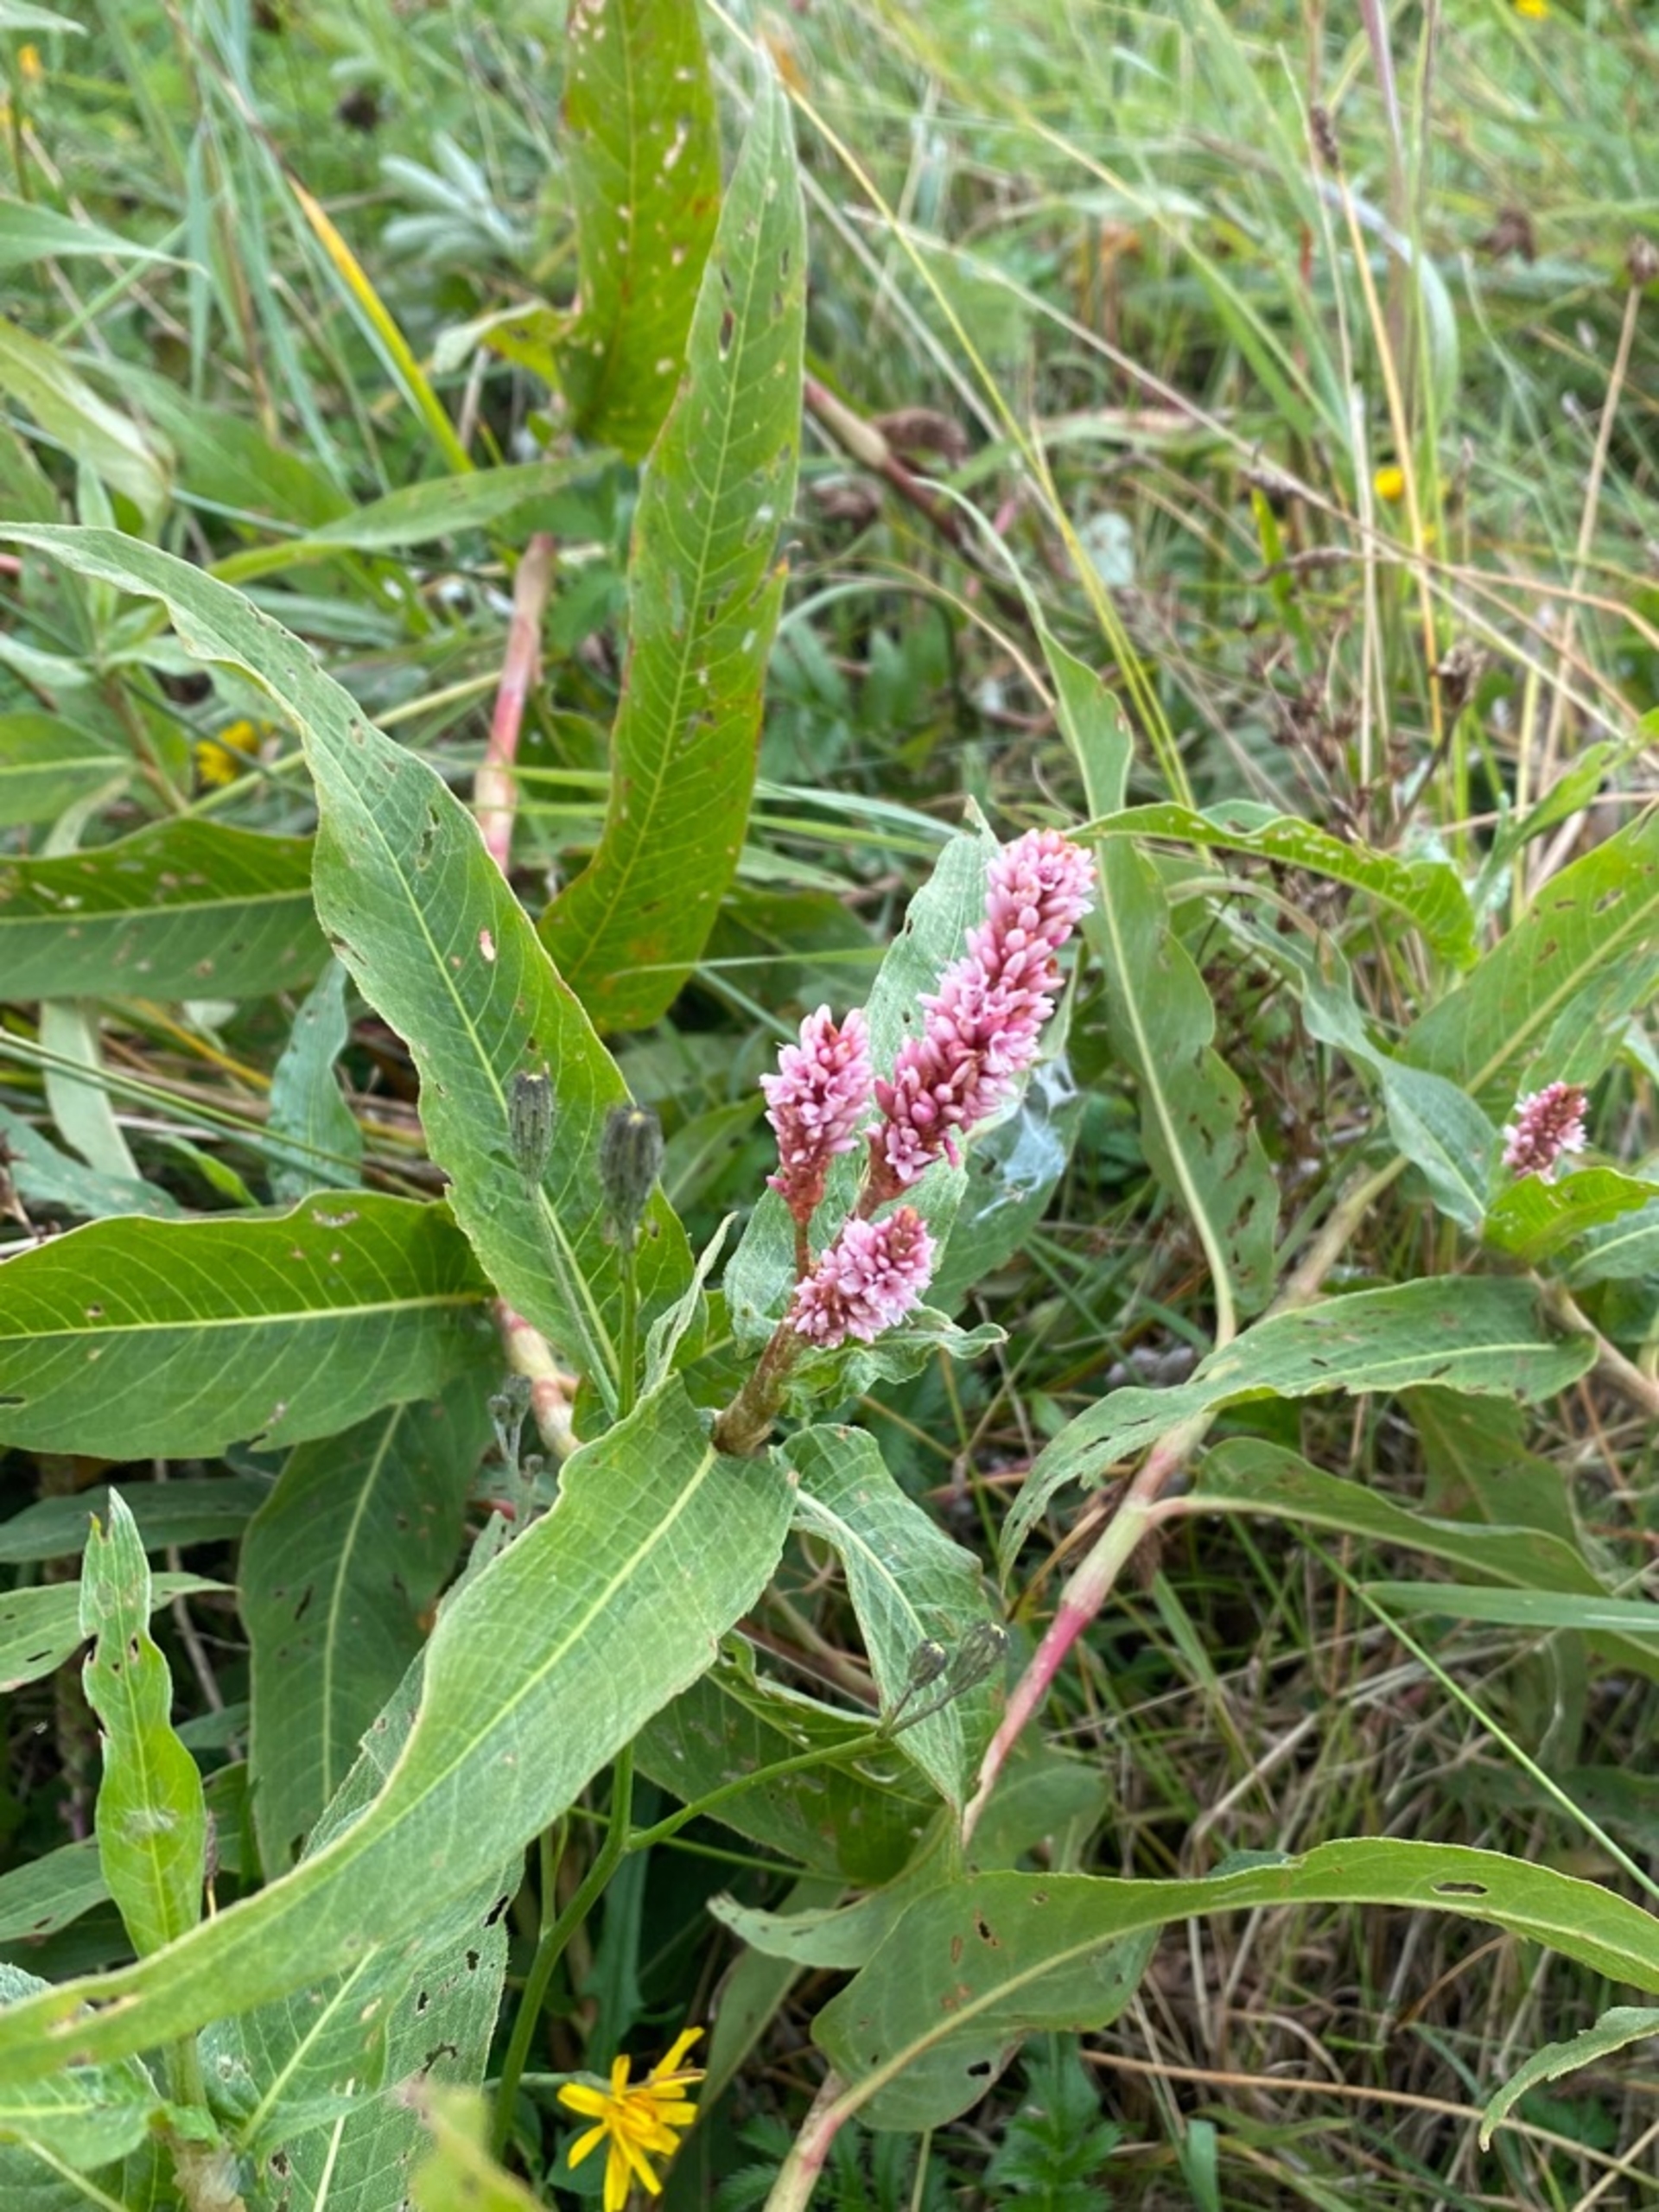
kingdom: Plantae
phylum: Tracheophyta
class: Magnoliopsida
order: Caryophyllales
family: Polygonaceae
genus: Persicaria
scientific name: Persicaria amphibia
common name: Vand-pileurt
